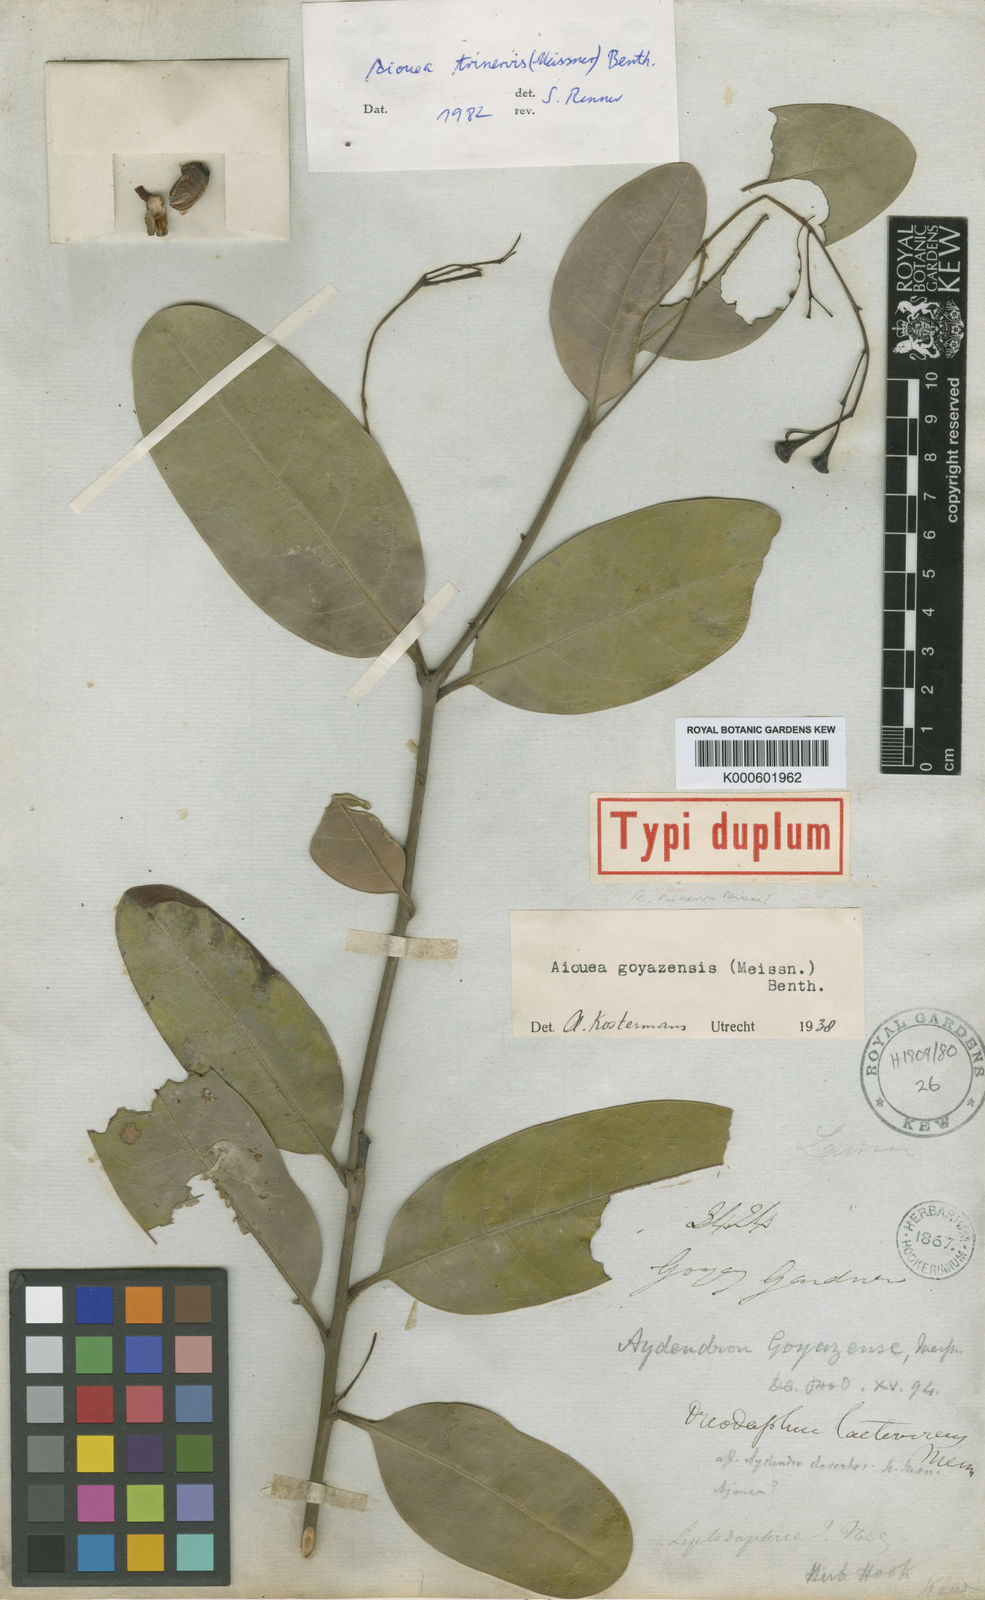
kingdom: Plantae
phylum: Tracheophyta
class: Magnoliopsida
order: Laurales
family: Lauraceae
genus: Aiouea
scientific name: Aiouea
